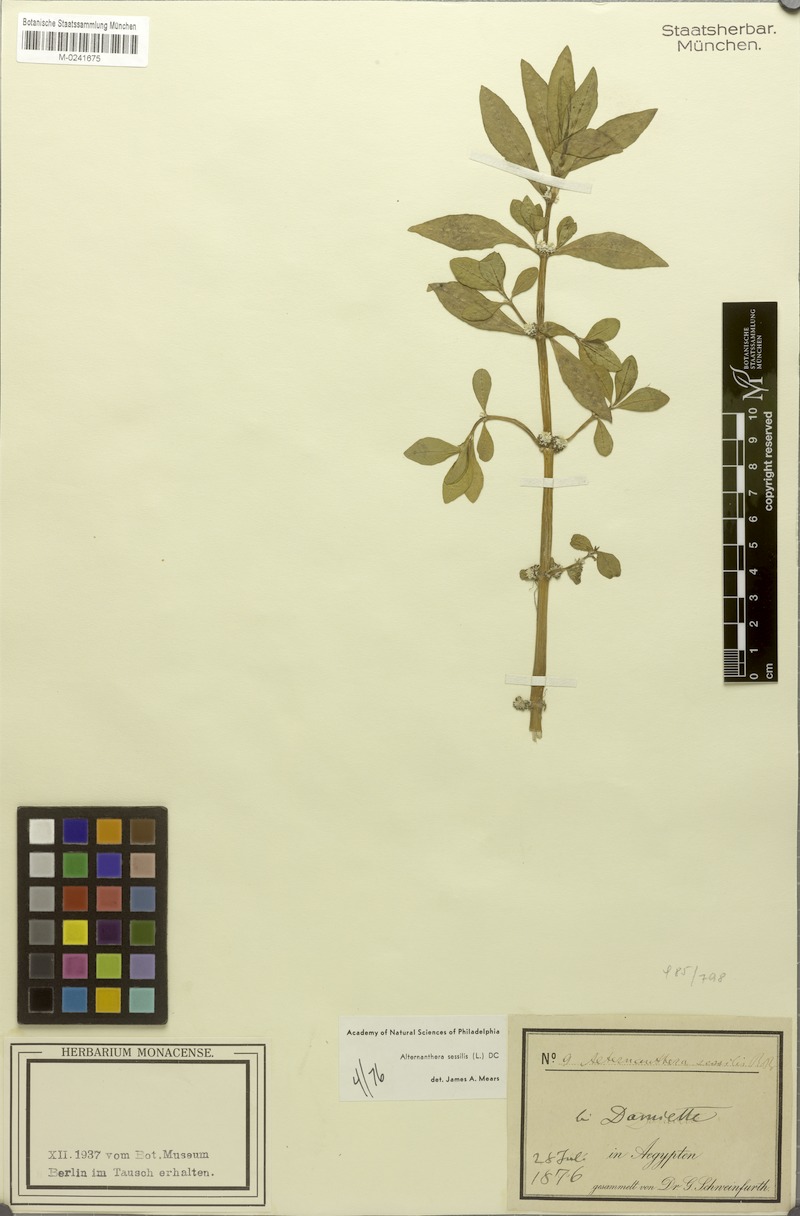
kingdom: Plantae
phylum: Tracheophyta
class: Magnoliopsida
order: Caryophyllales
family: Amaranthaceae
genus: Alternanthera
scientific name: Alternanthera sessilis
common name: Sessile joyweed
